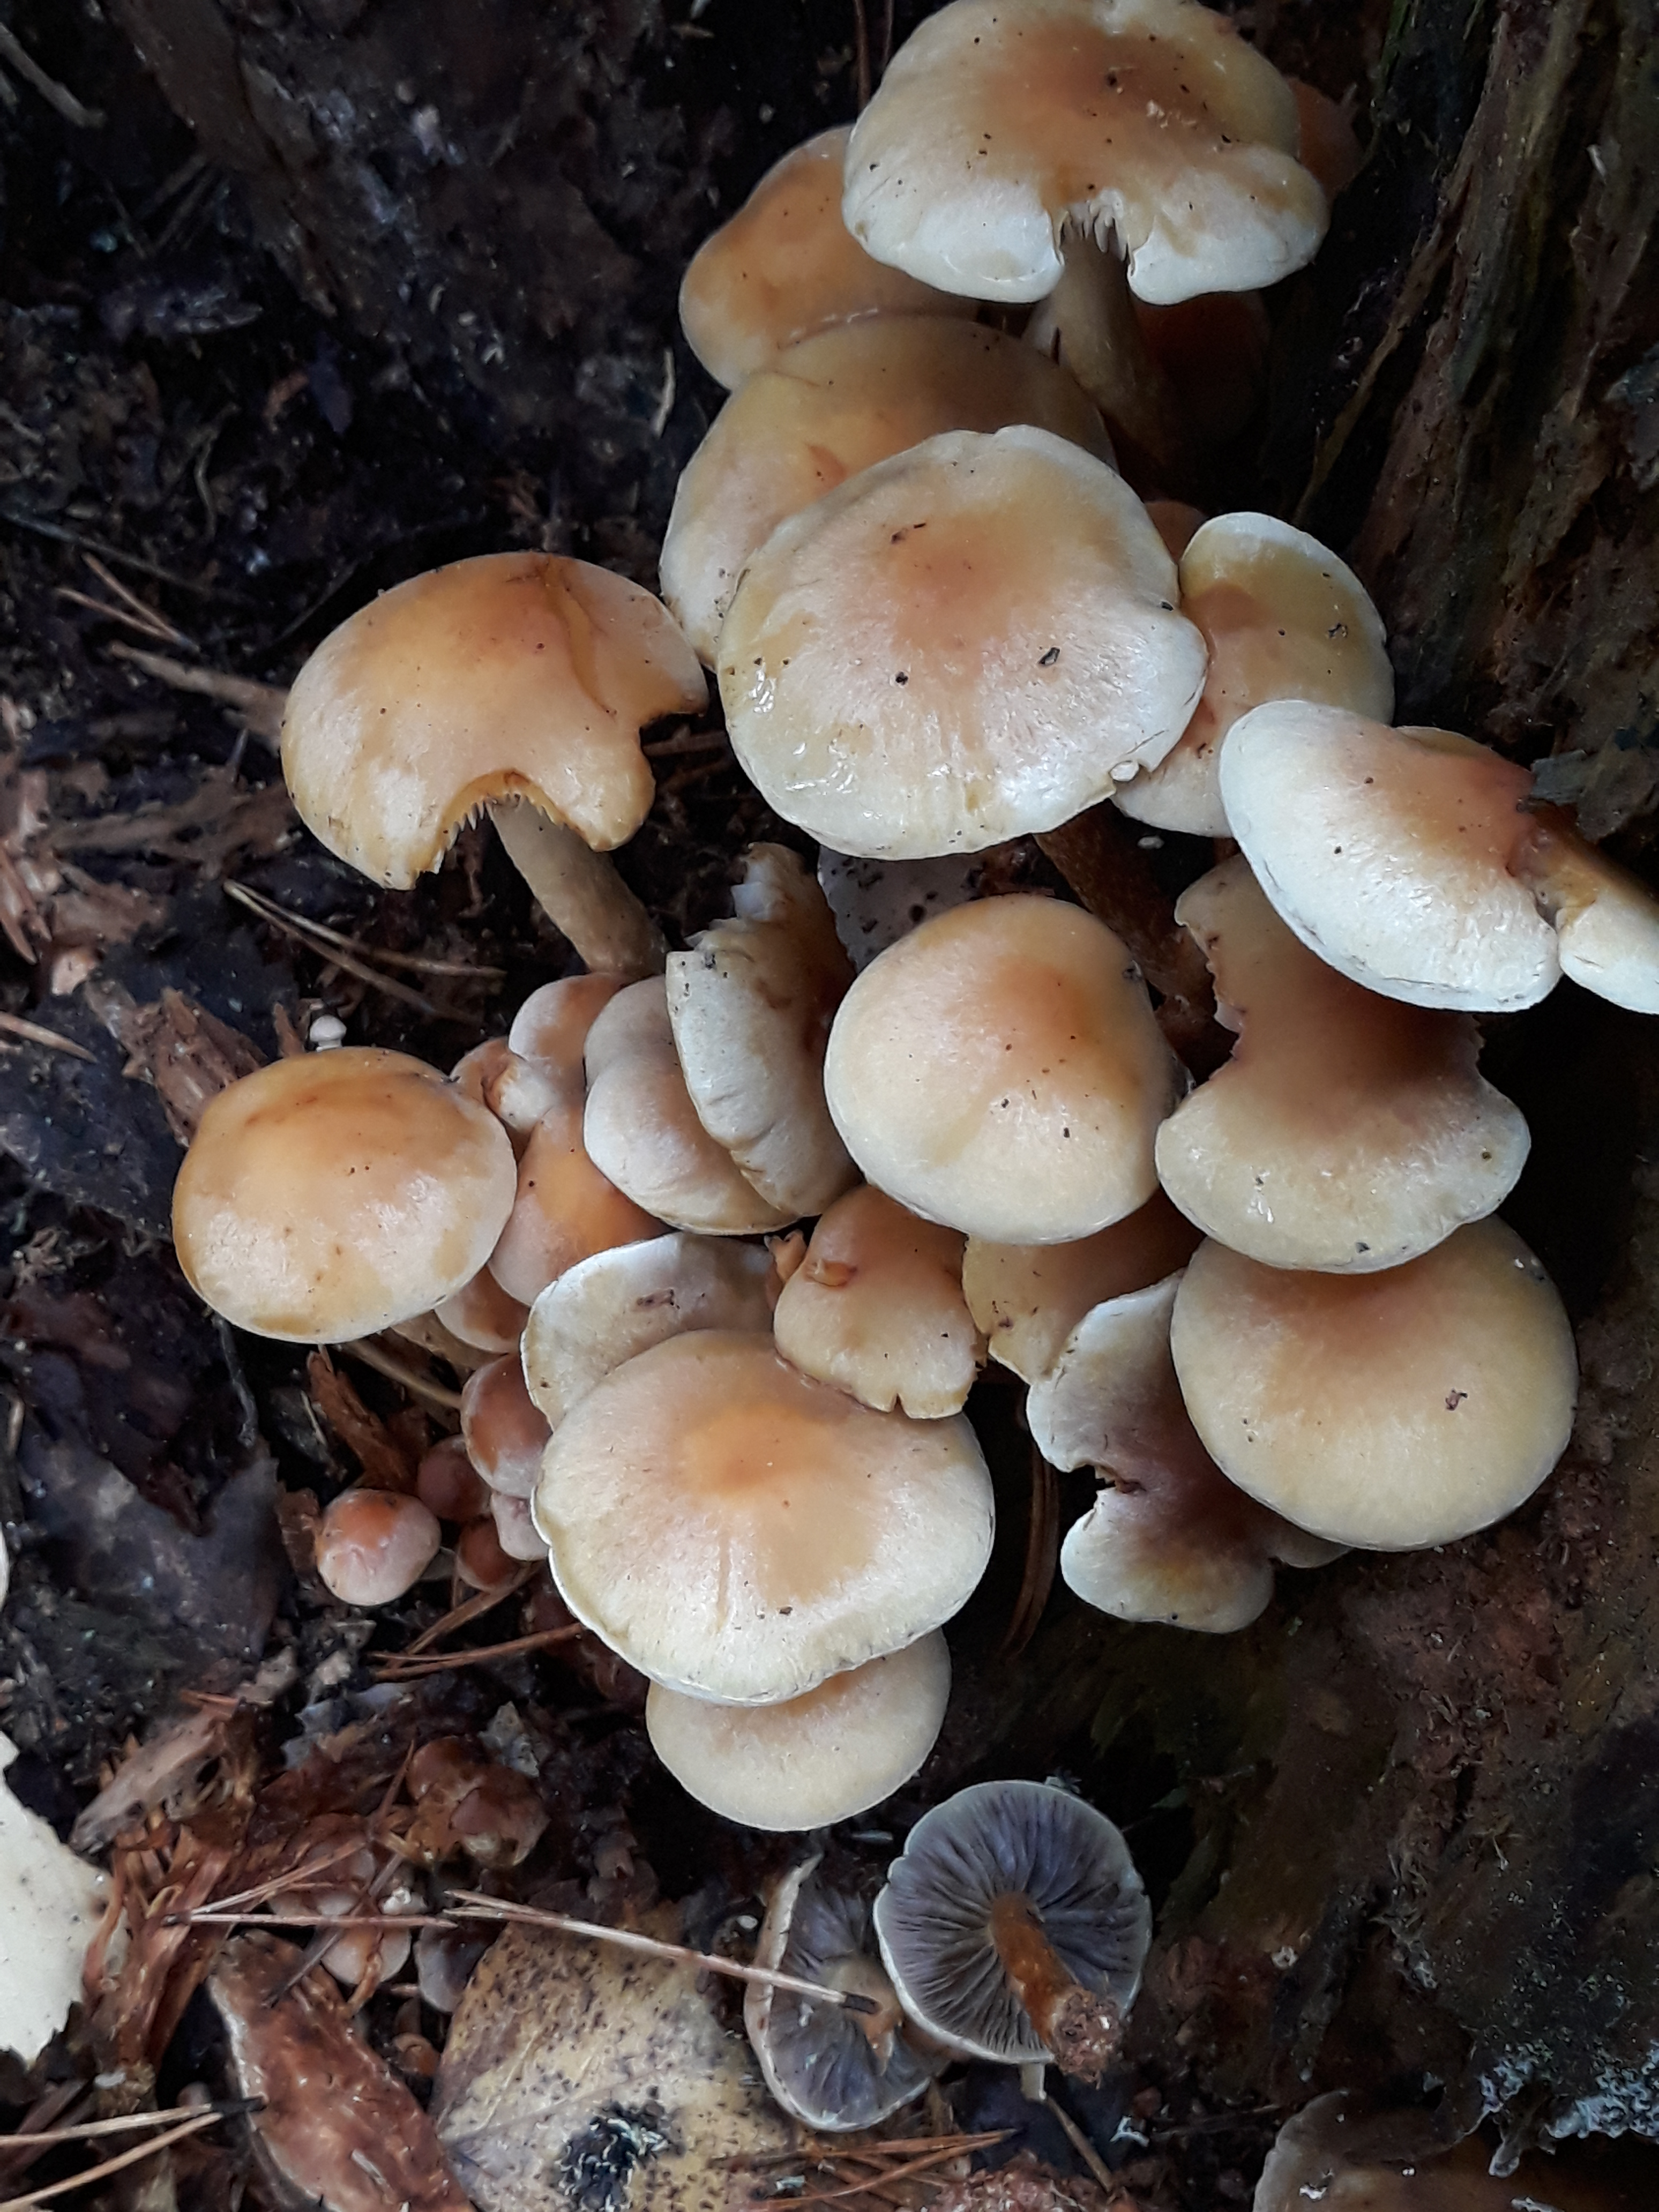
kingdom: Fungi
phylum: Basidiomycota
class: Agaricomycetes
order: Agaricales
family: Strophariaceae
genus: Hypholoma
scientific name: Hypholoma capnoides
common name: Conifer tuft
